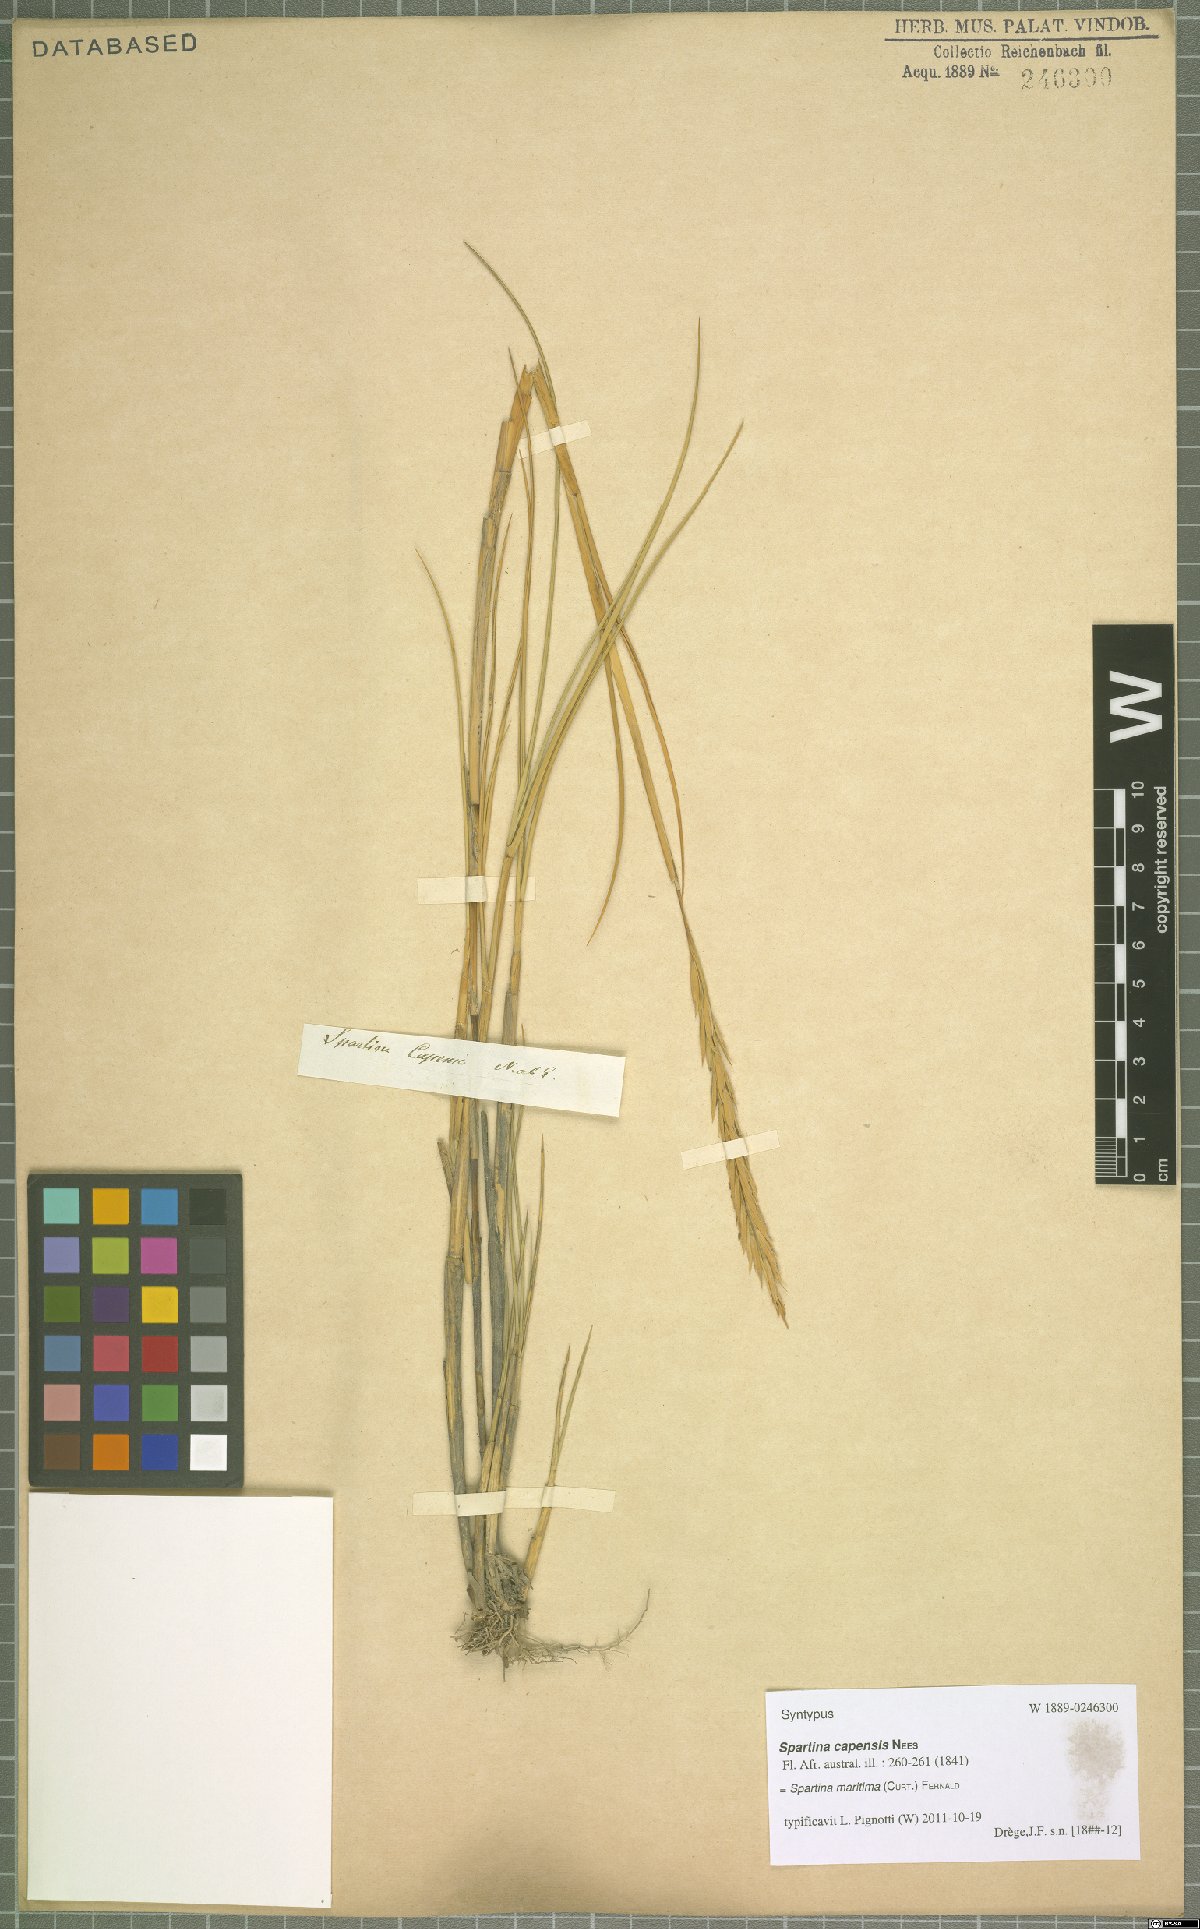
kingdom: Plantae
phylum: Tracheophyta
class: Liliopsida
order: Poales
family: Poaceae
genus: Sporobolus
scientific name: Sporobolus maritimus
